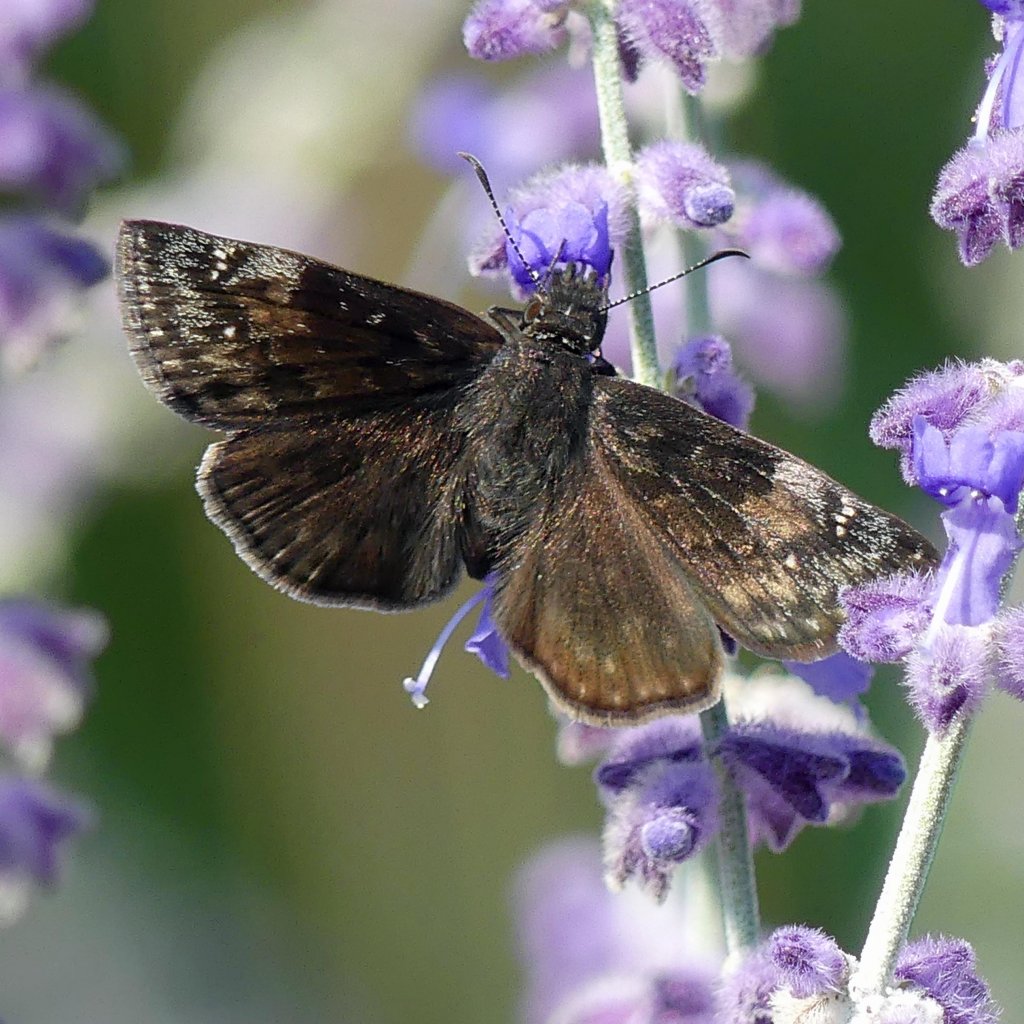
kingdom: Animalia
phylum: Arthropoda
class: Insecta
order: Lepidoptera
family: Hesperiidae
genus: Gesta
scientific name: Gesta
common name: Wild Indigo Duskywing
